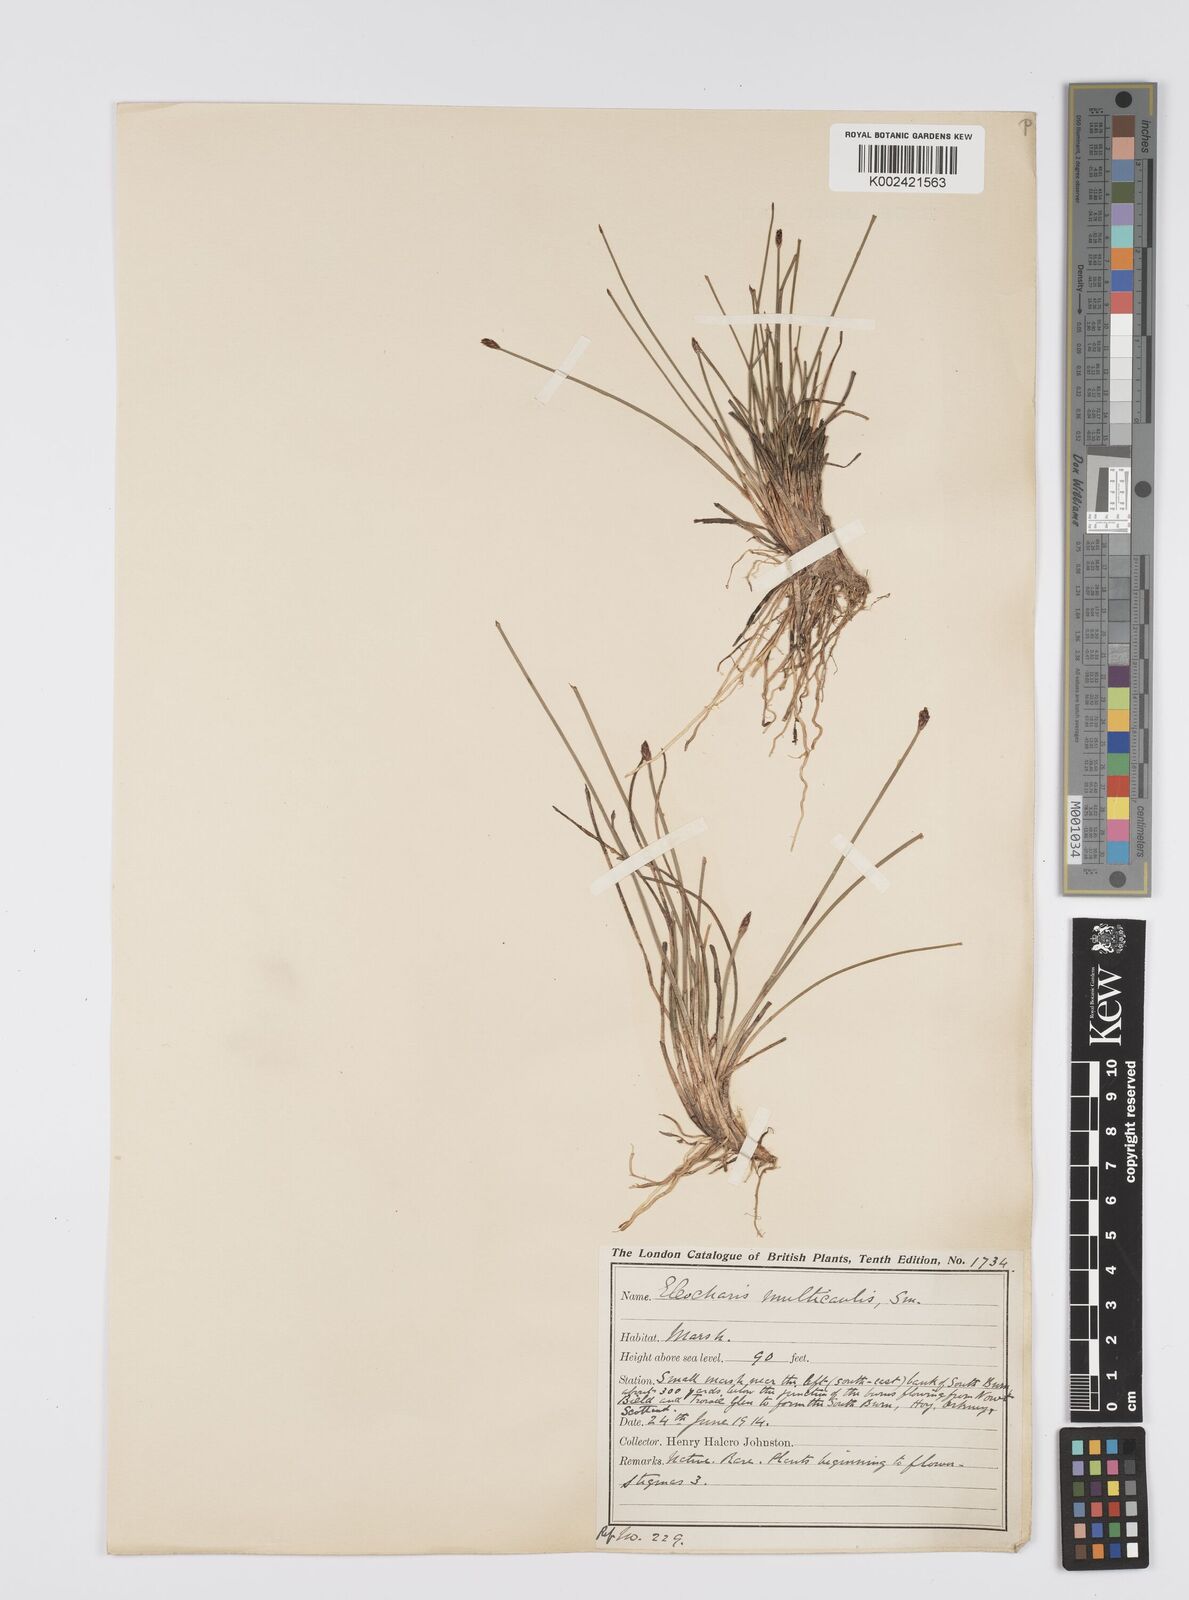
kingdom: Plantae
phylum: Tracheophyta
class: Liliopsida
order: Poales
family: Cyperaceae
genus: Eleocharis
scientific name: Eleocharis multicaulis
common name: Many-stalked spike-rush
